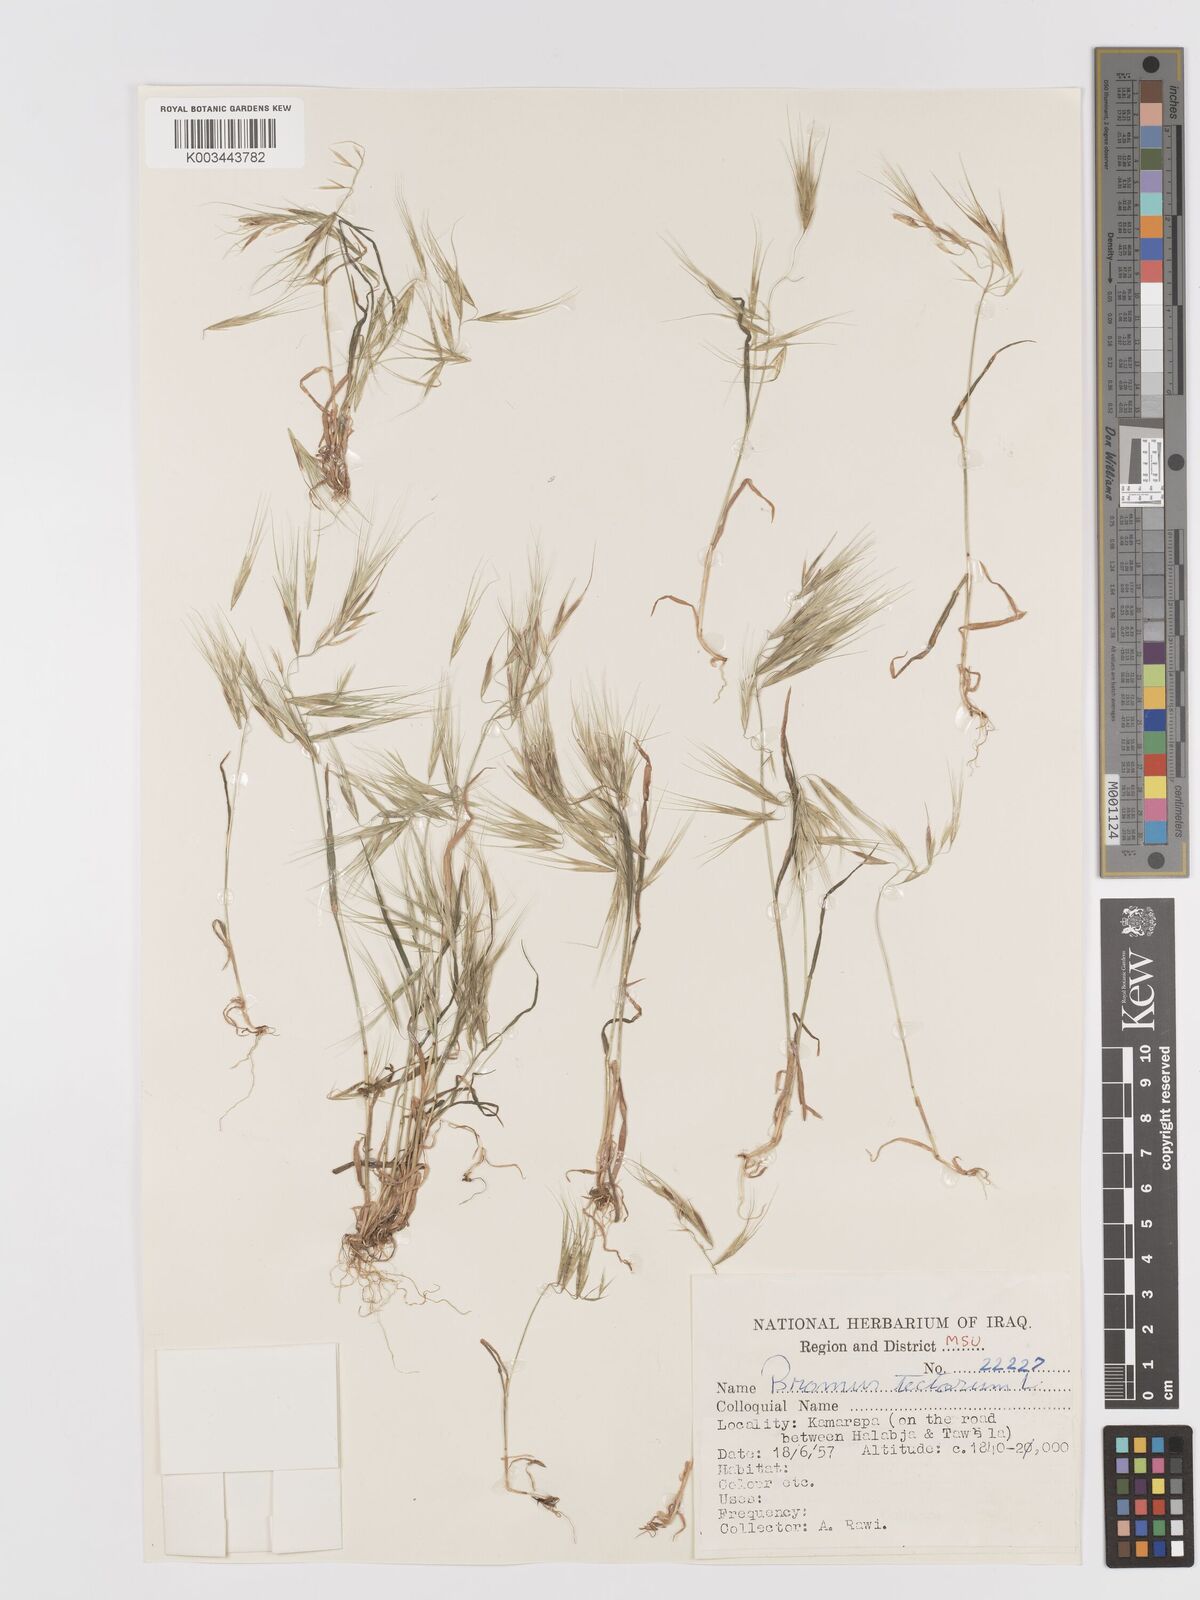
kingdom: Plantae
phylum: Tracheophyta
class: Liliopsida
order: Poales
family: Poaceae
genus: Bromus
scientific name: Bromus tectorum
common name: Cheatgrass
